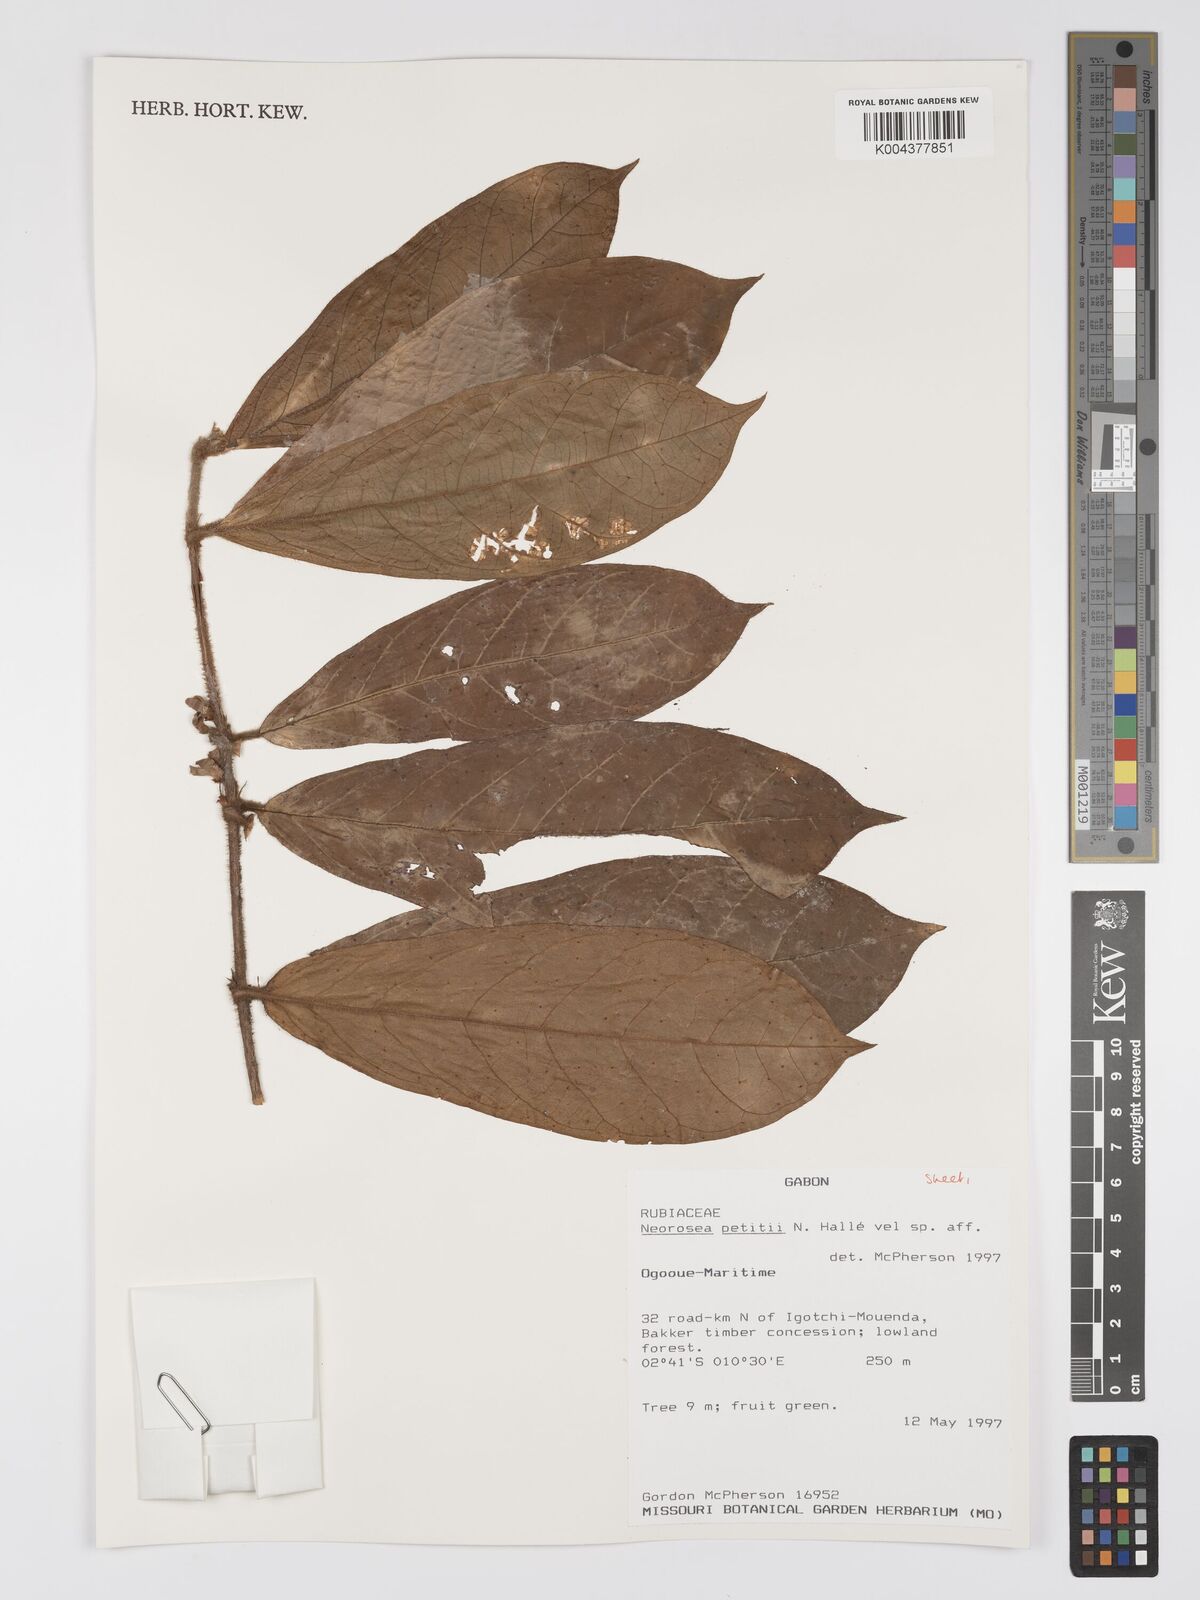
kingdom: Plantae
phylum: Tracheophyta
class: Magnoliopsida
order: Gentianales
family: Rubiaceae
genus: Sericanthe
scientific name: Sericanthe petitii
